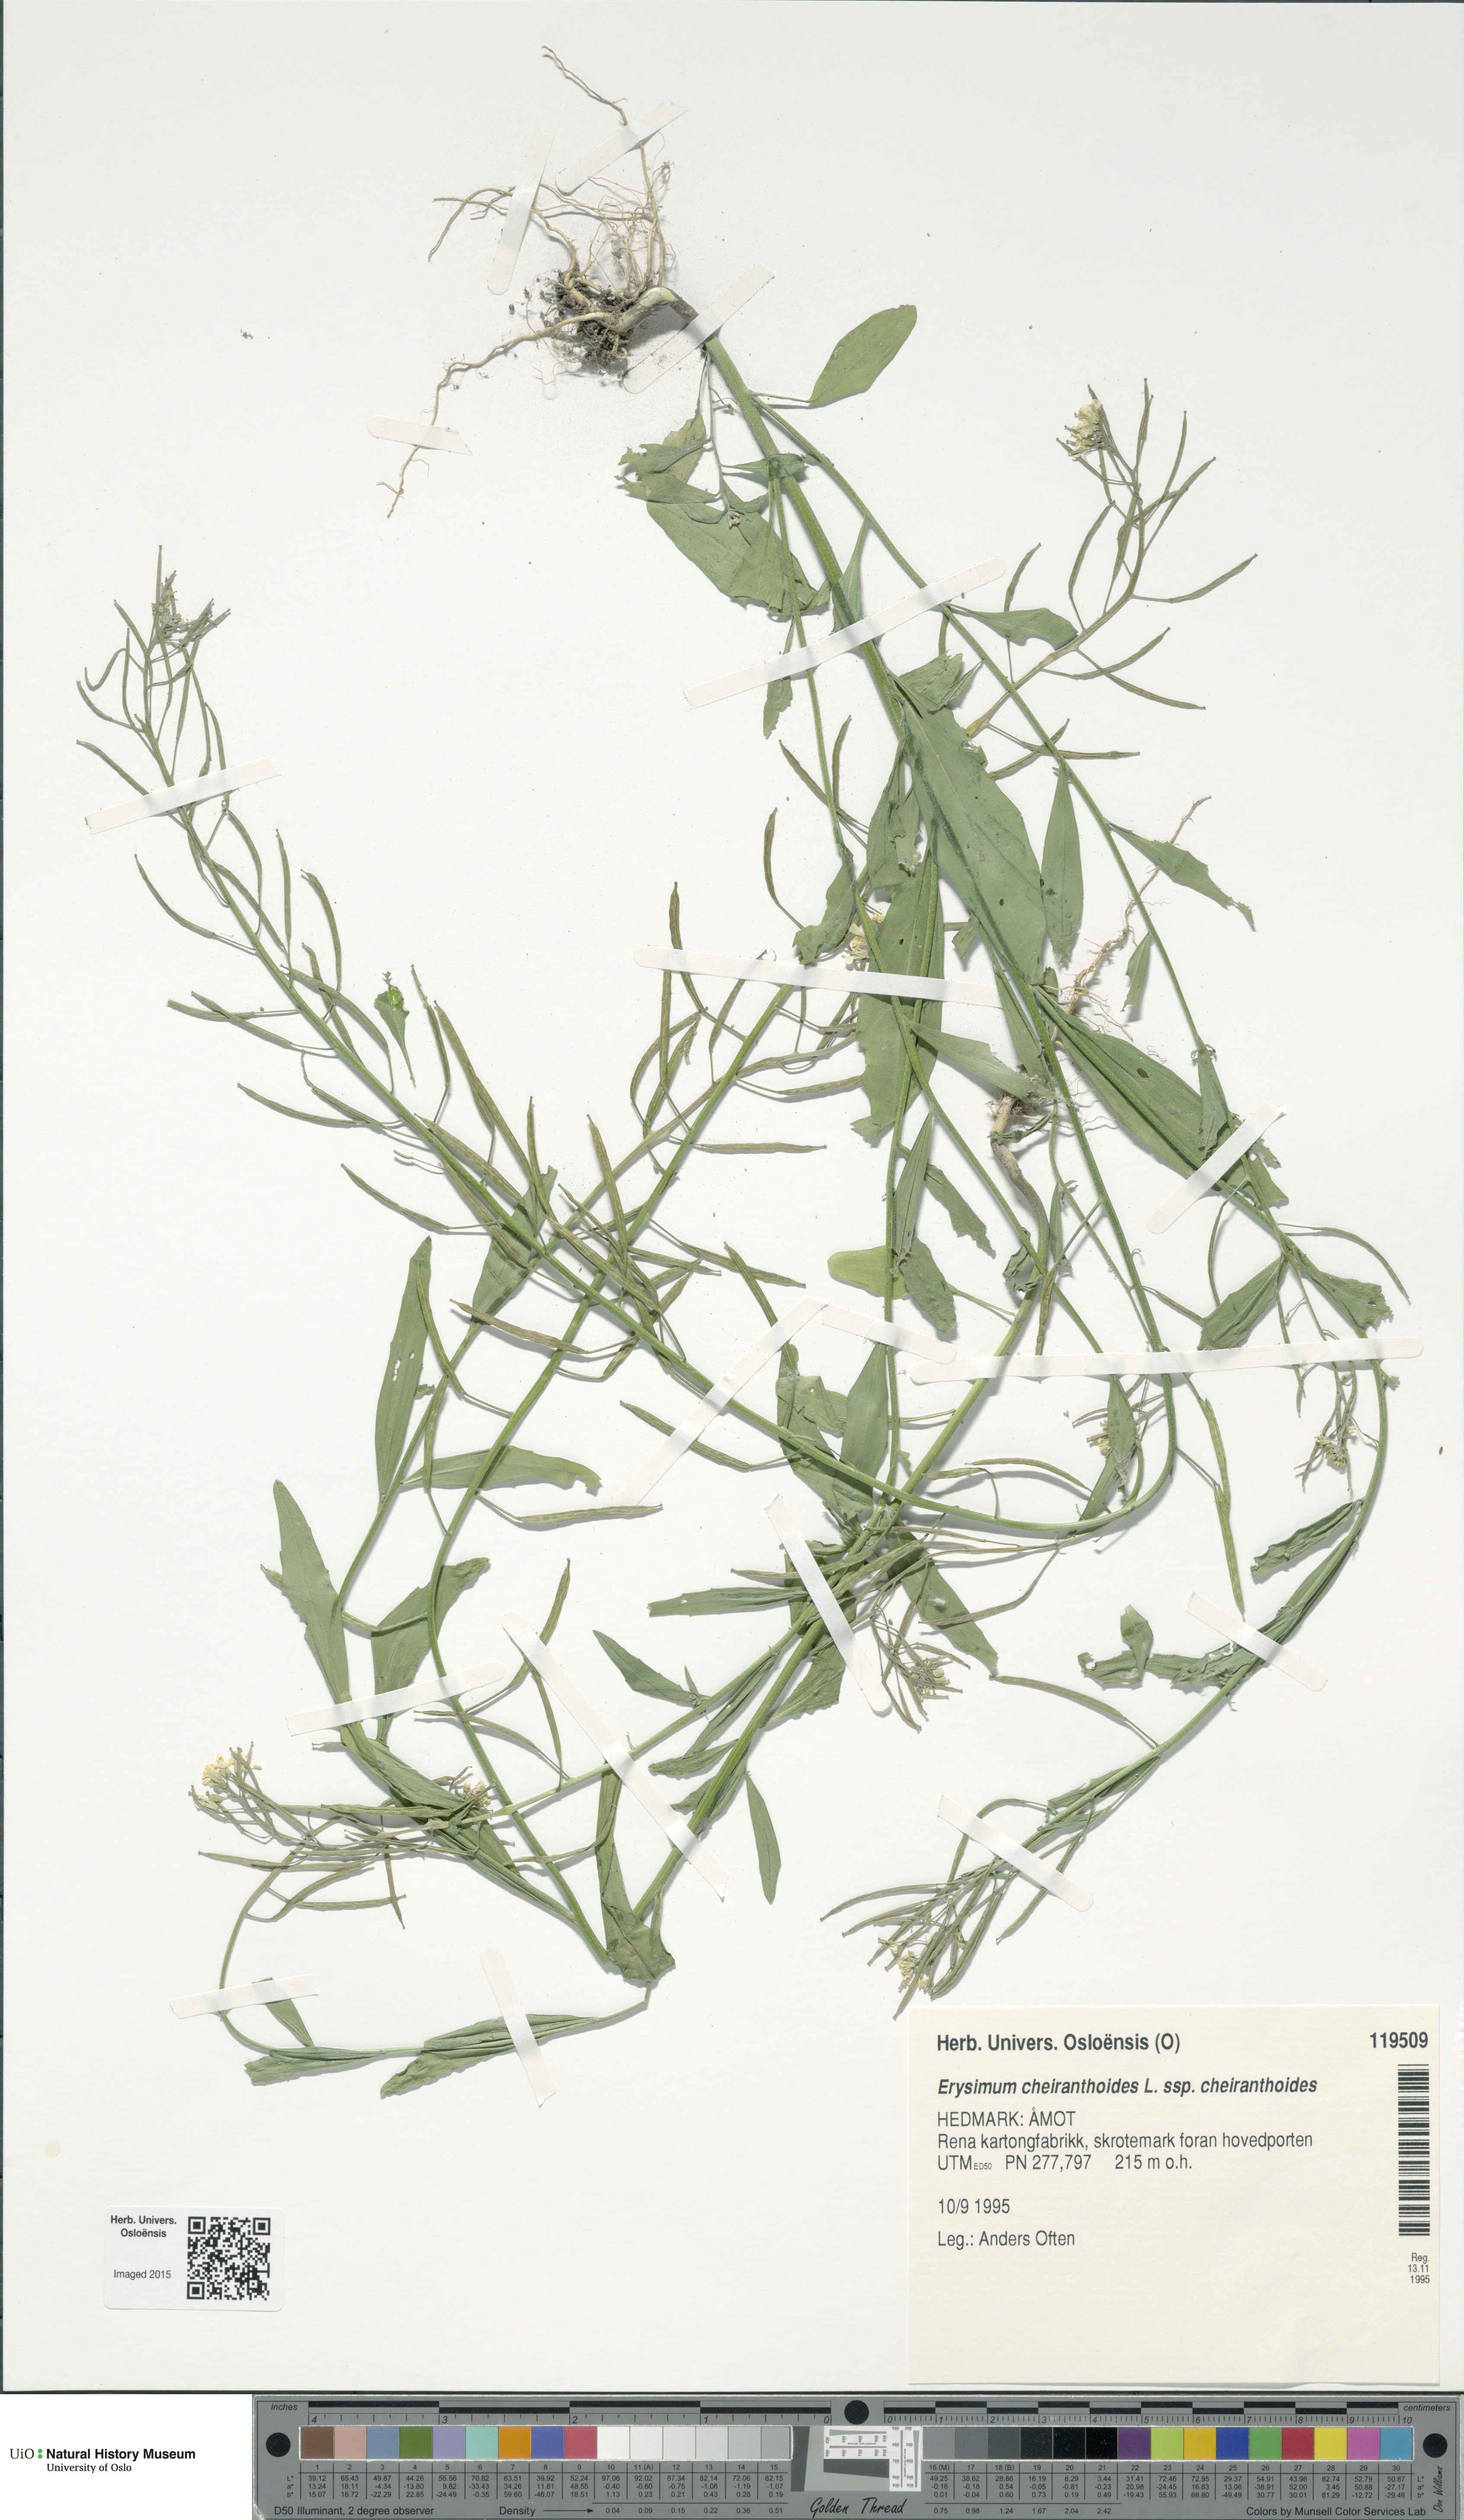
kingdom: Plantae
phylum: Tracheophyta
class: Magnoliopsida
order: Brassicales
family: Brassicaceae
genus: Erysimum
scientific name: Erysimum cheiranthoides
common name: Treacle mustard
